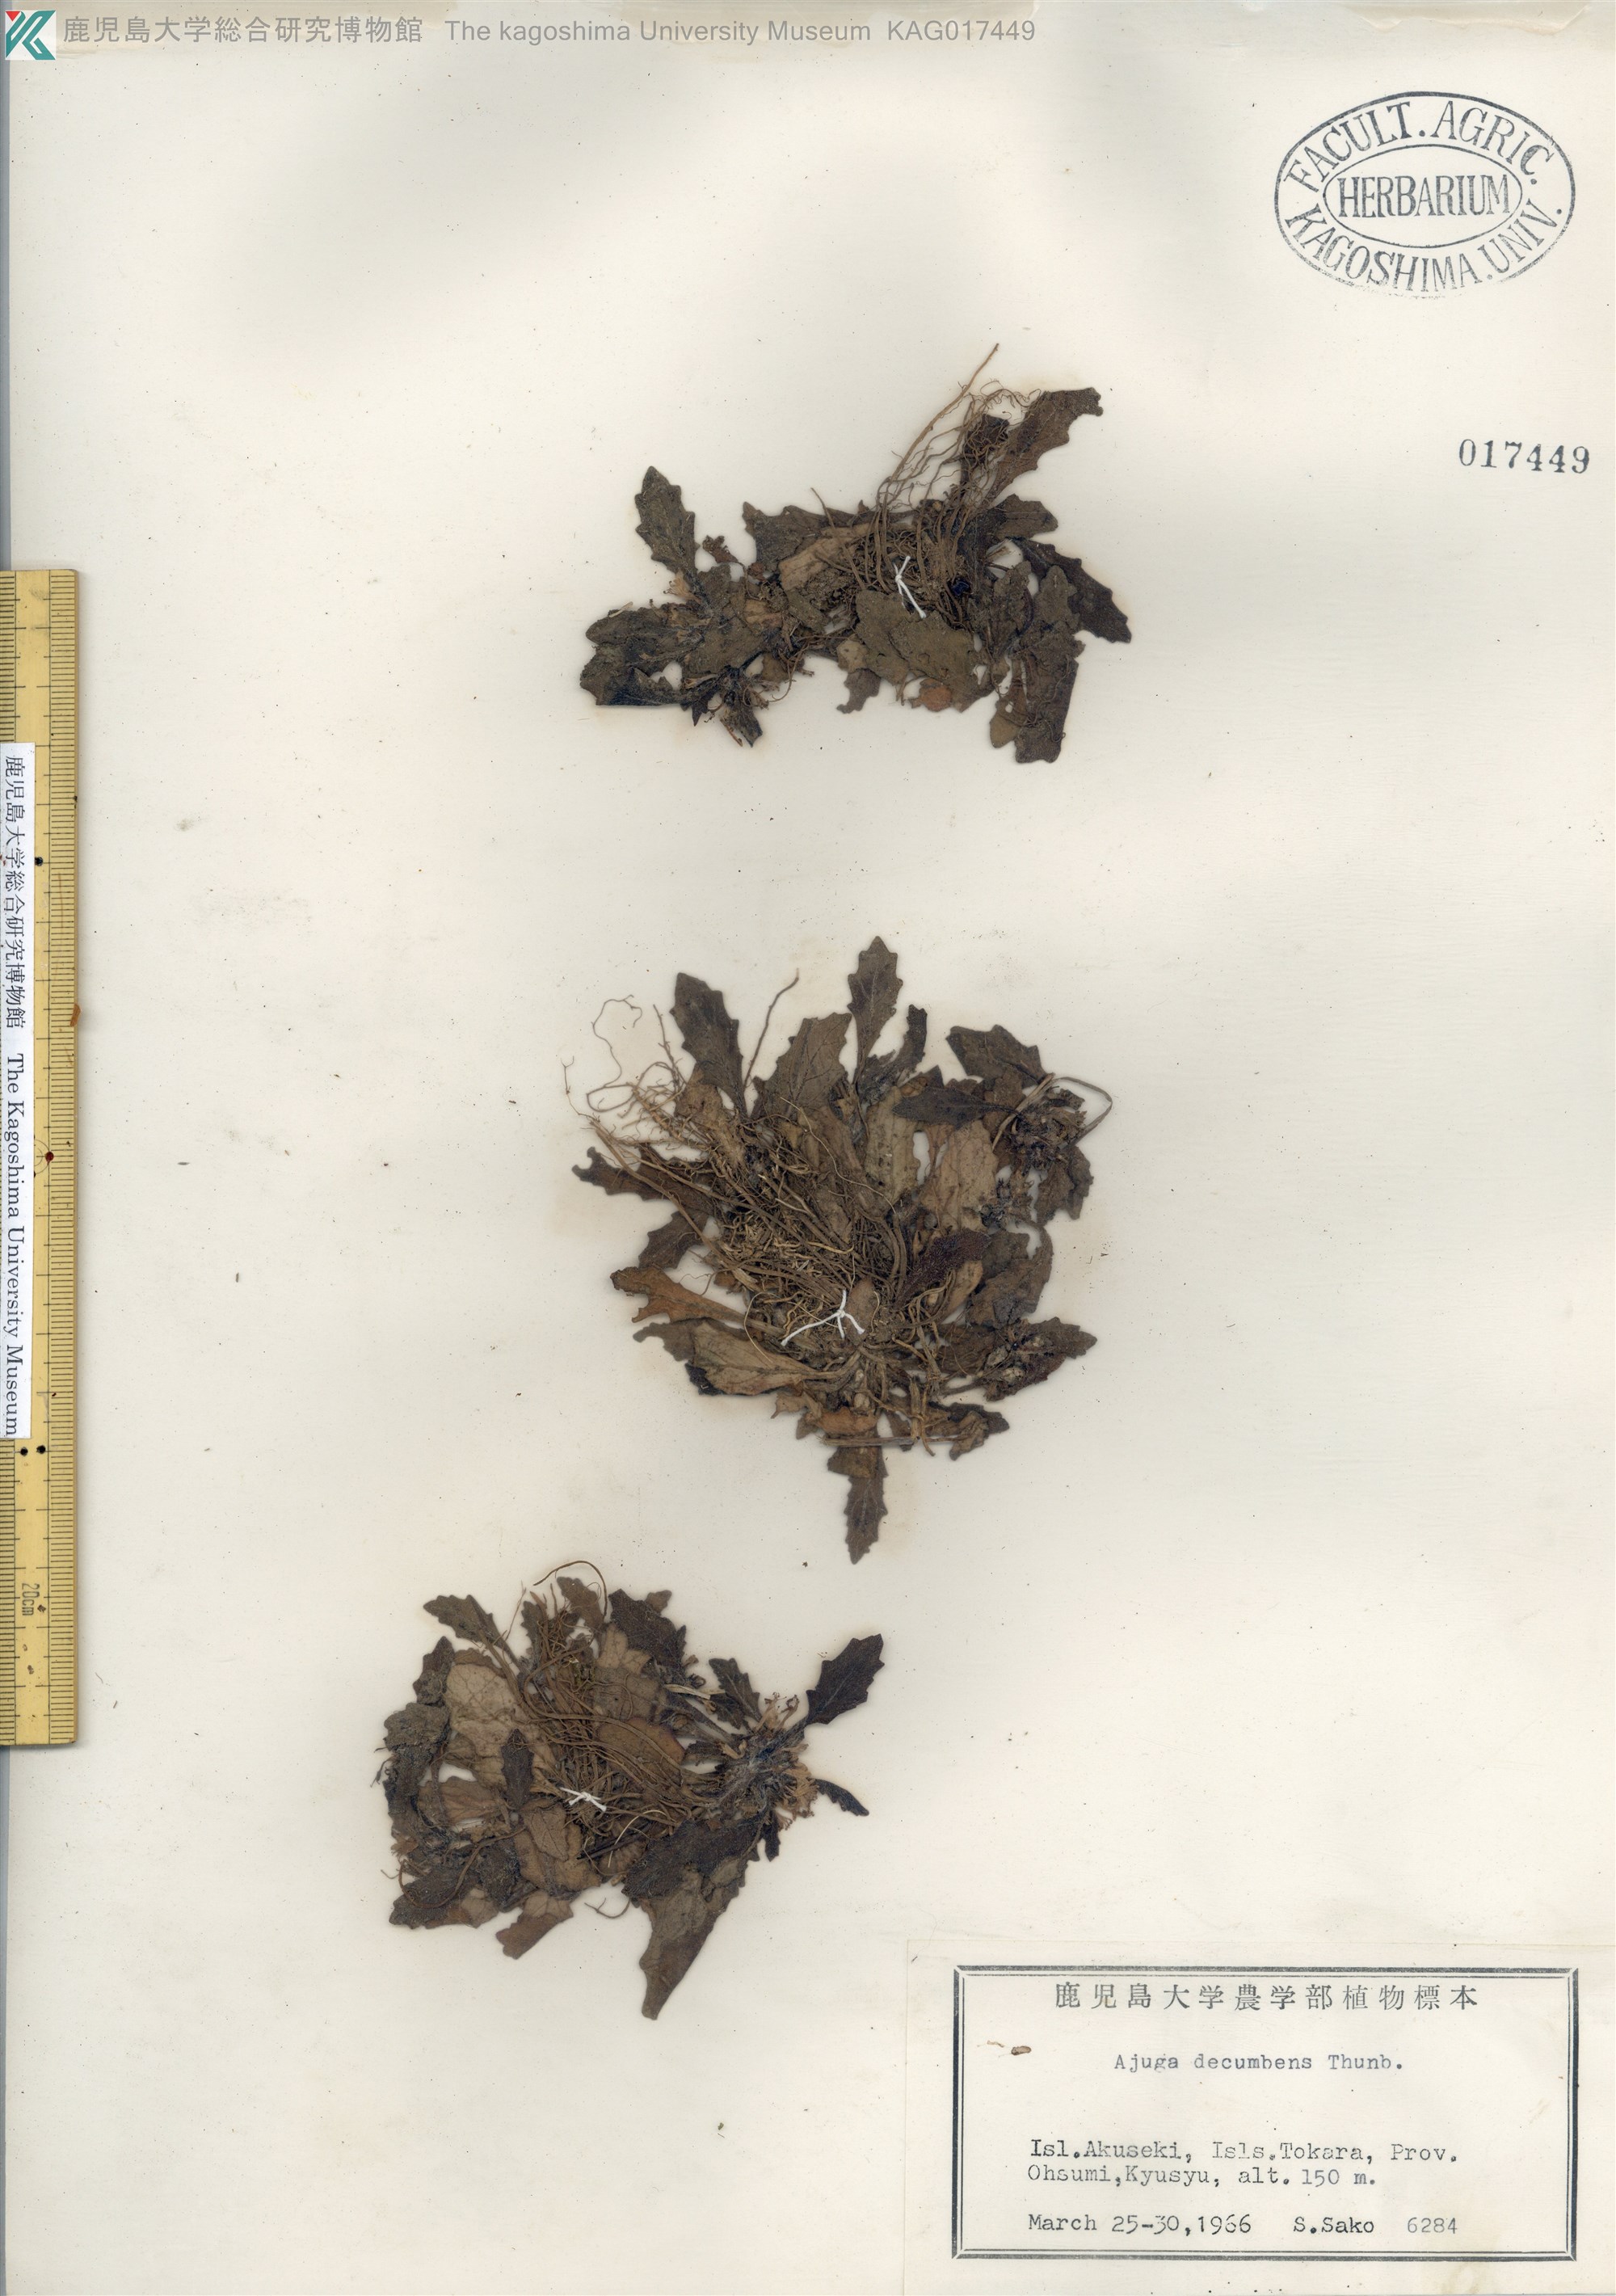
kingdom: Plantae
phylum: Tracheophyta
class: Magnoliopsida
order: Lamiales
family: Lamiaceae
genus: Ajuga
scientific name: Ajuga decumbens
